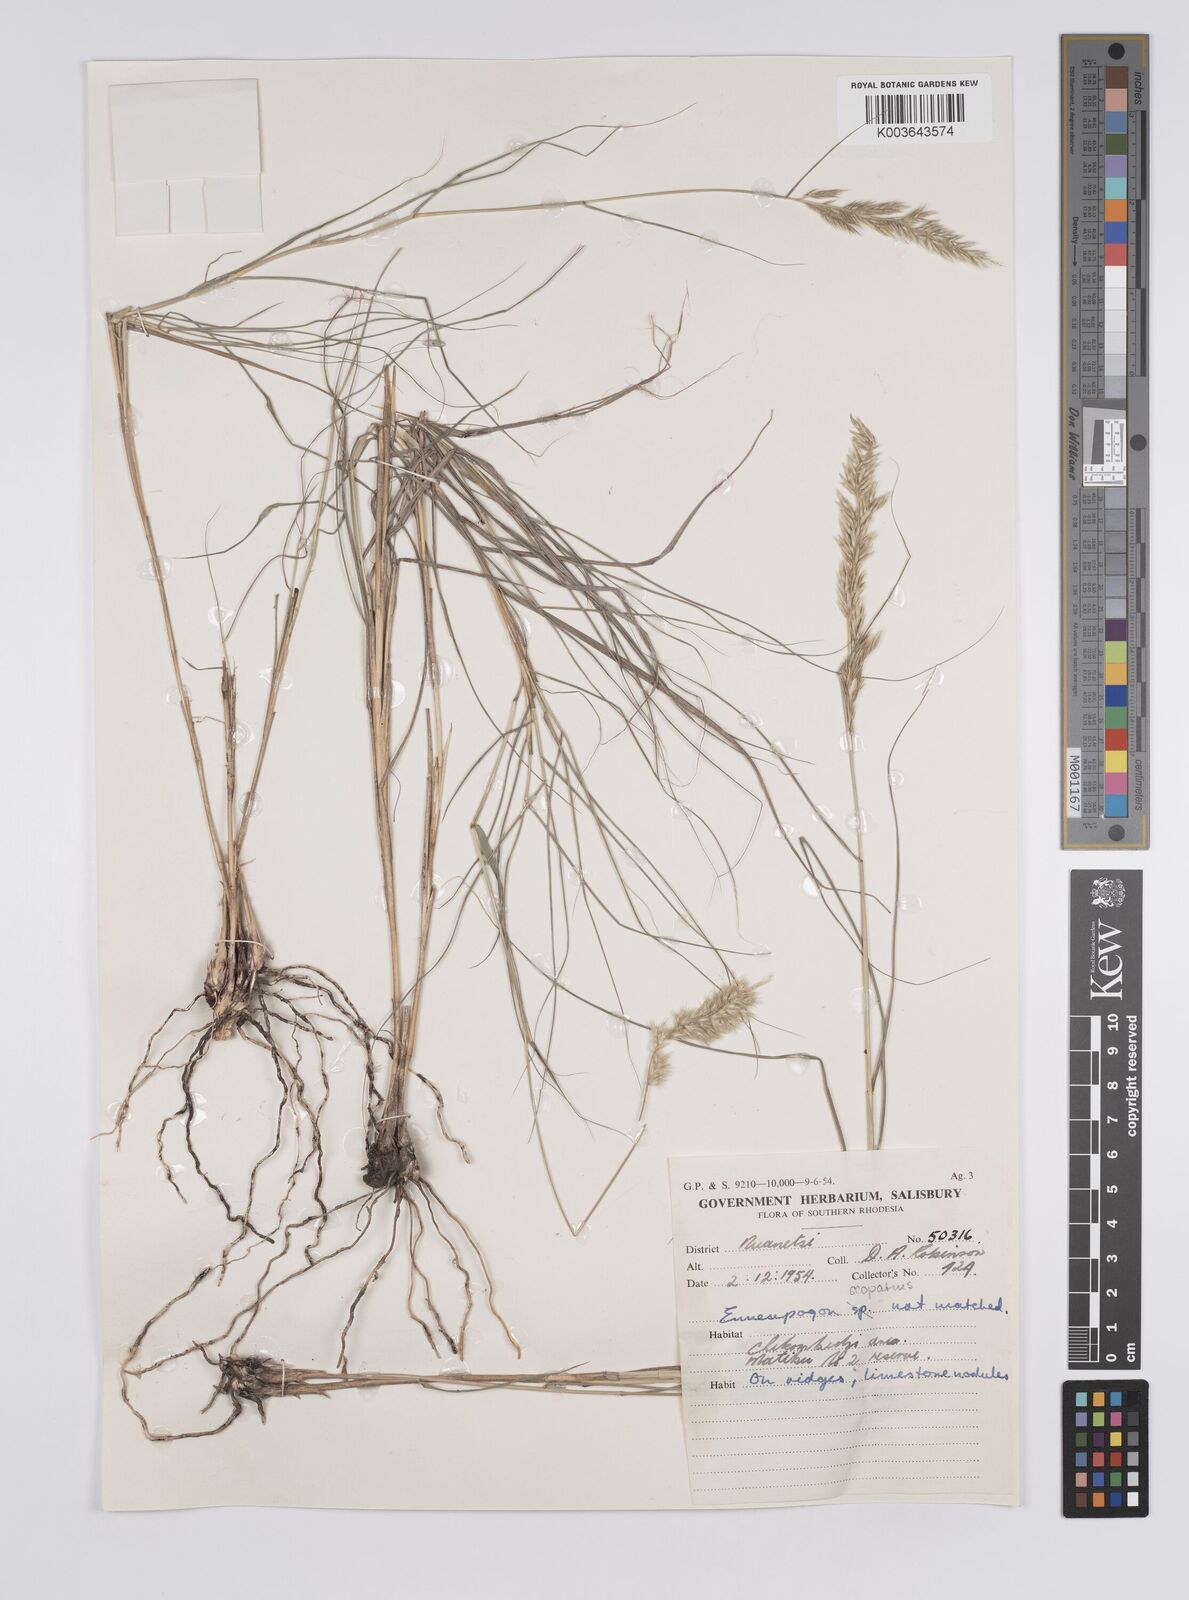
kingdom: Plantae
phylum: Tracheophyta
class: Liliopsida
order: Poales
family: Poaceae
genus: Enneapogon
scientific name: Enneapogon scoparius
